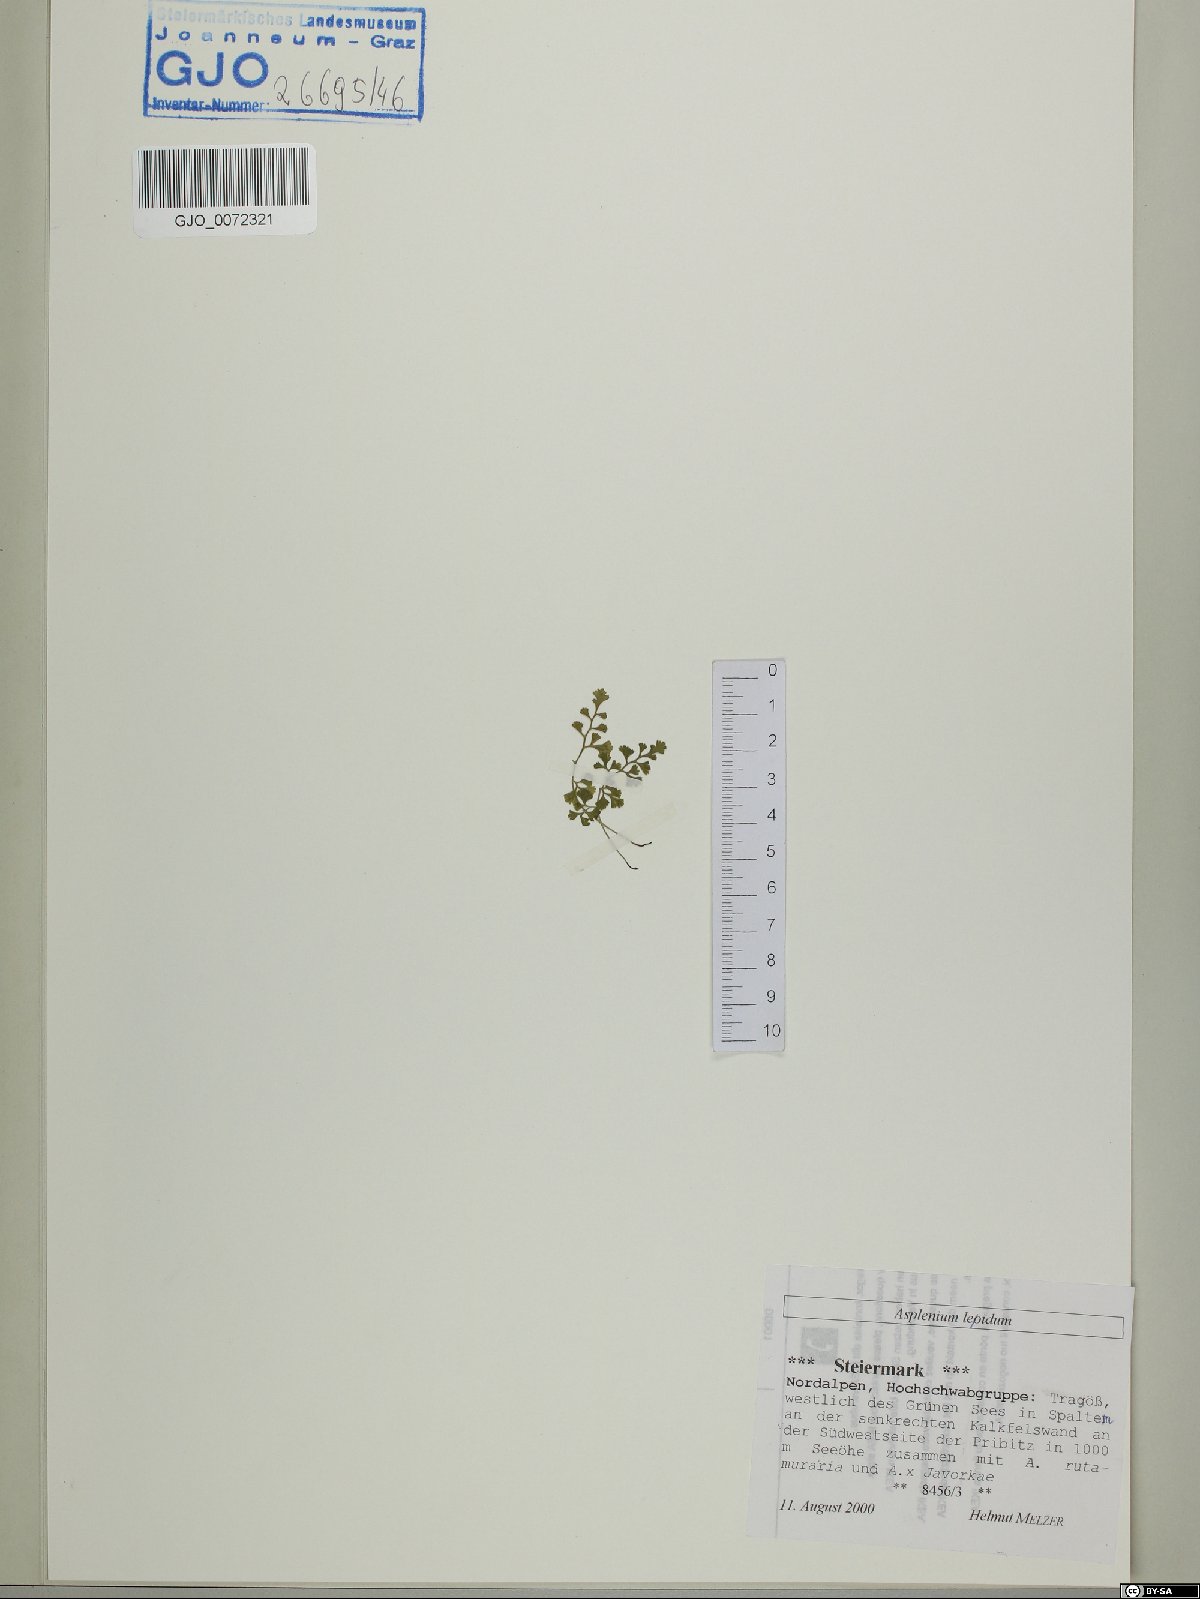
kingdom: Plantae
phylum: Tracheophyta
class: Polypodiopsida
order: Polypodiales
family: Aspleniaceae
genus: Asplenium
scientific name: Asplenium lepidum
